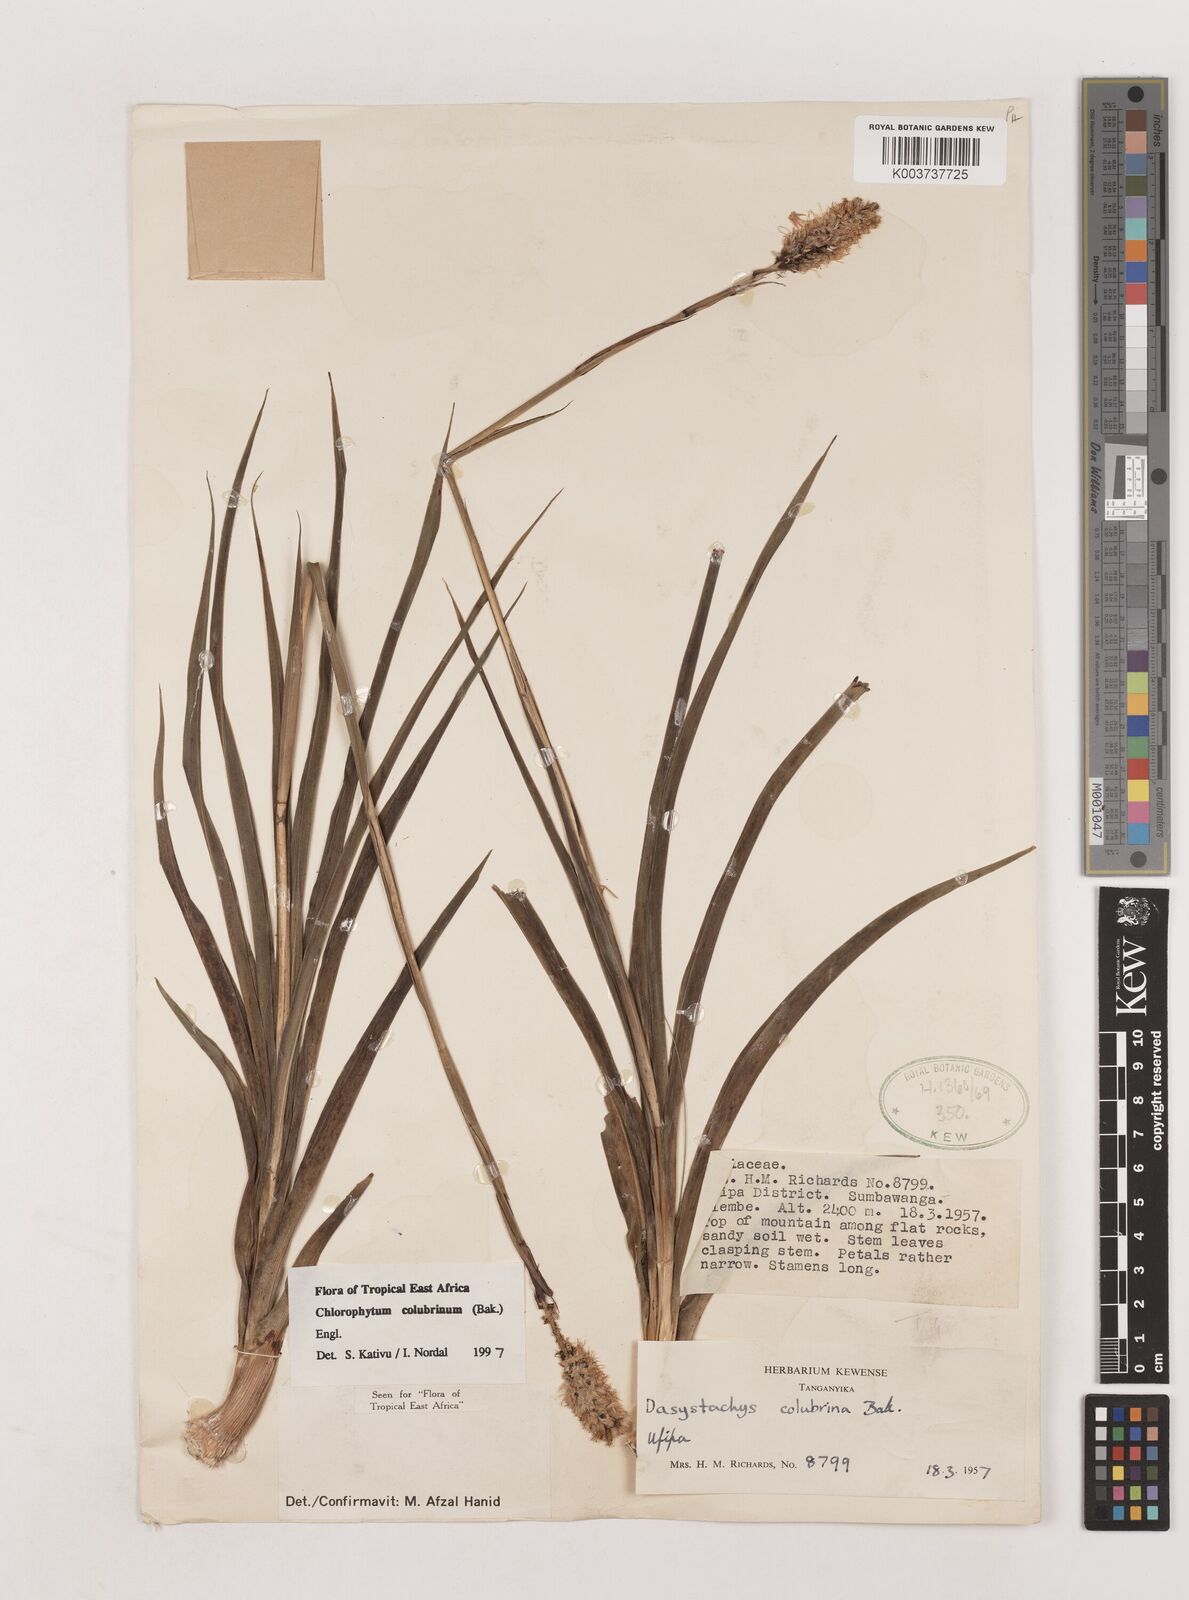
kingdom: Plantae
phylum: Tracheophyta
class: Liliopsida
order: Asparagales
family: Asparagaceae
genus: Chlorophytum
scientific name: Chlorophytum colubrinum
